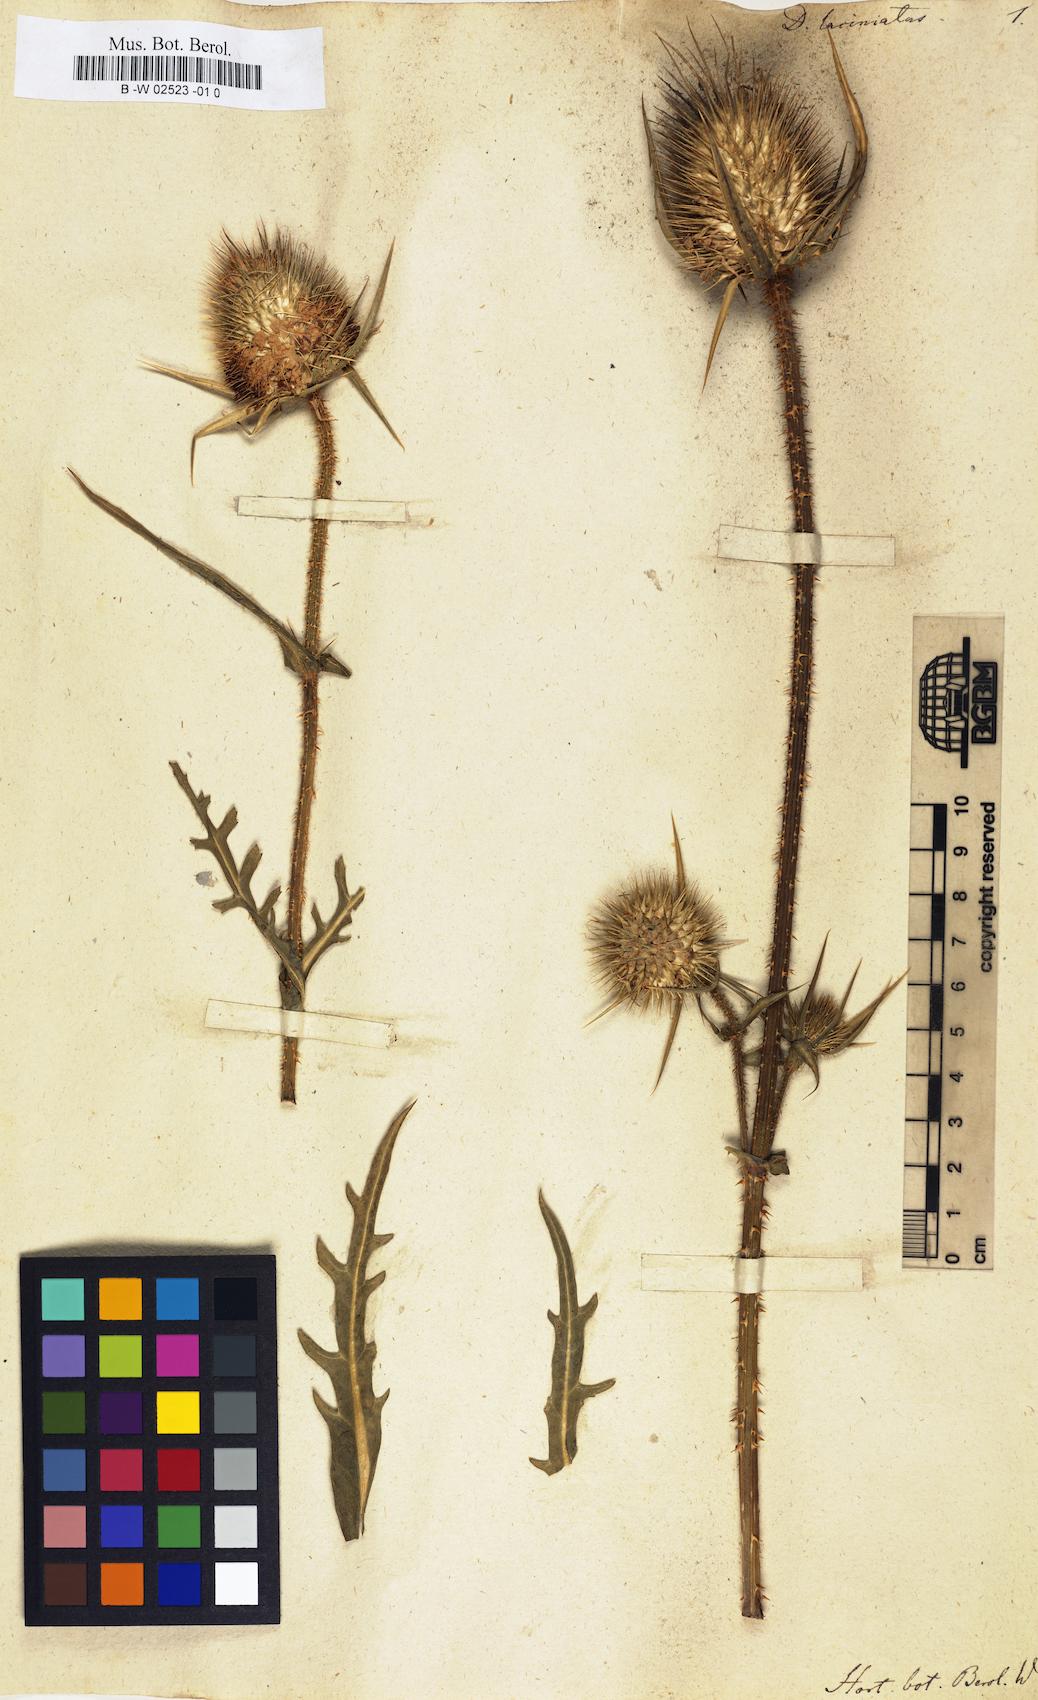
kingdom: Plantae
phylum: Tracheophyta
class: Magnoliopsida
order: Dipsacales
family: Caprifoliaceae
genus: Dipsacus
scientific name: Dipsacus laciniatus
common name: Cut-leaved teasel
